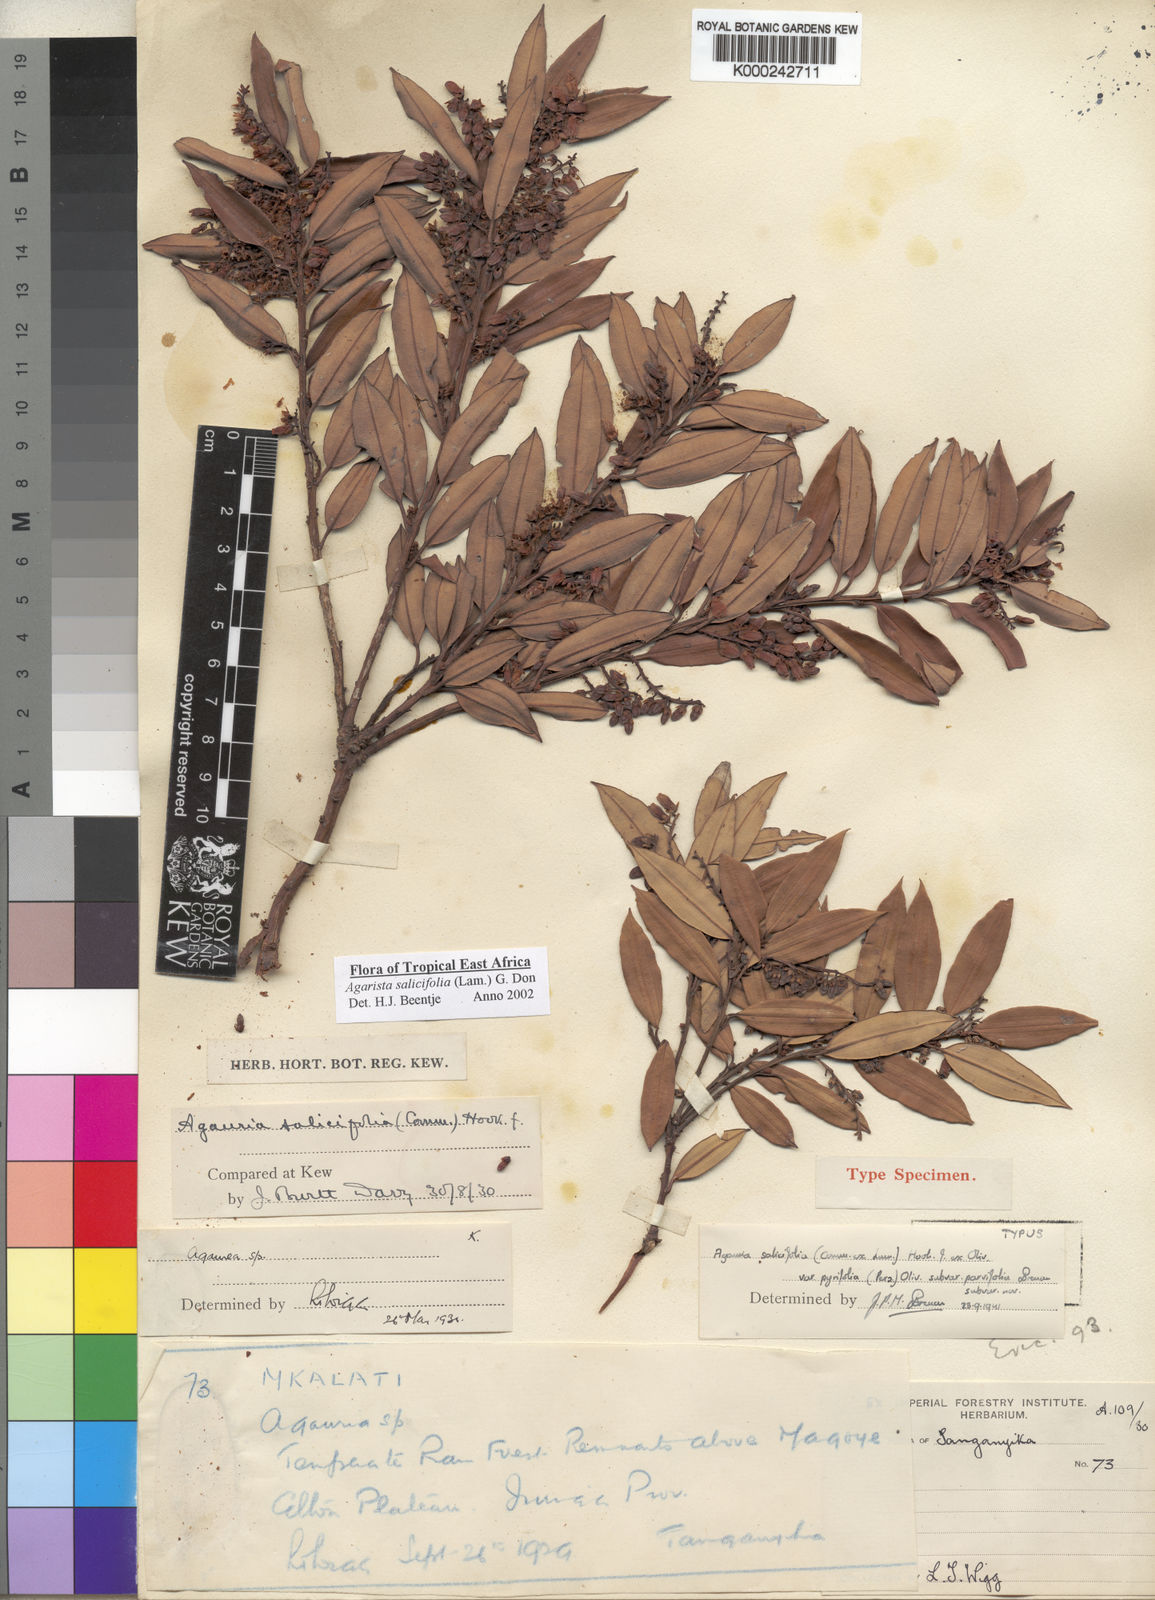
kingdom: Plantae
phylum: Tracheophyta
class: Magnoliopsida
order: Ericales
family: Ericaceae
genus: Agarista
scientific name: Agarista salicifolia
